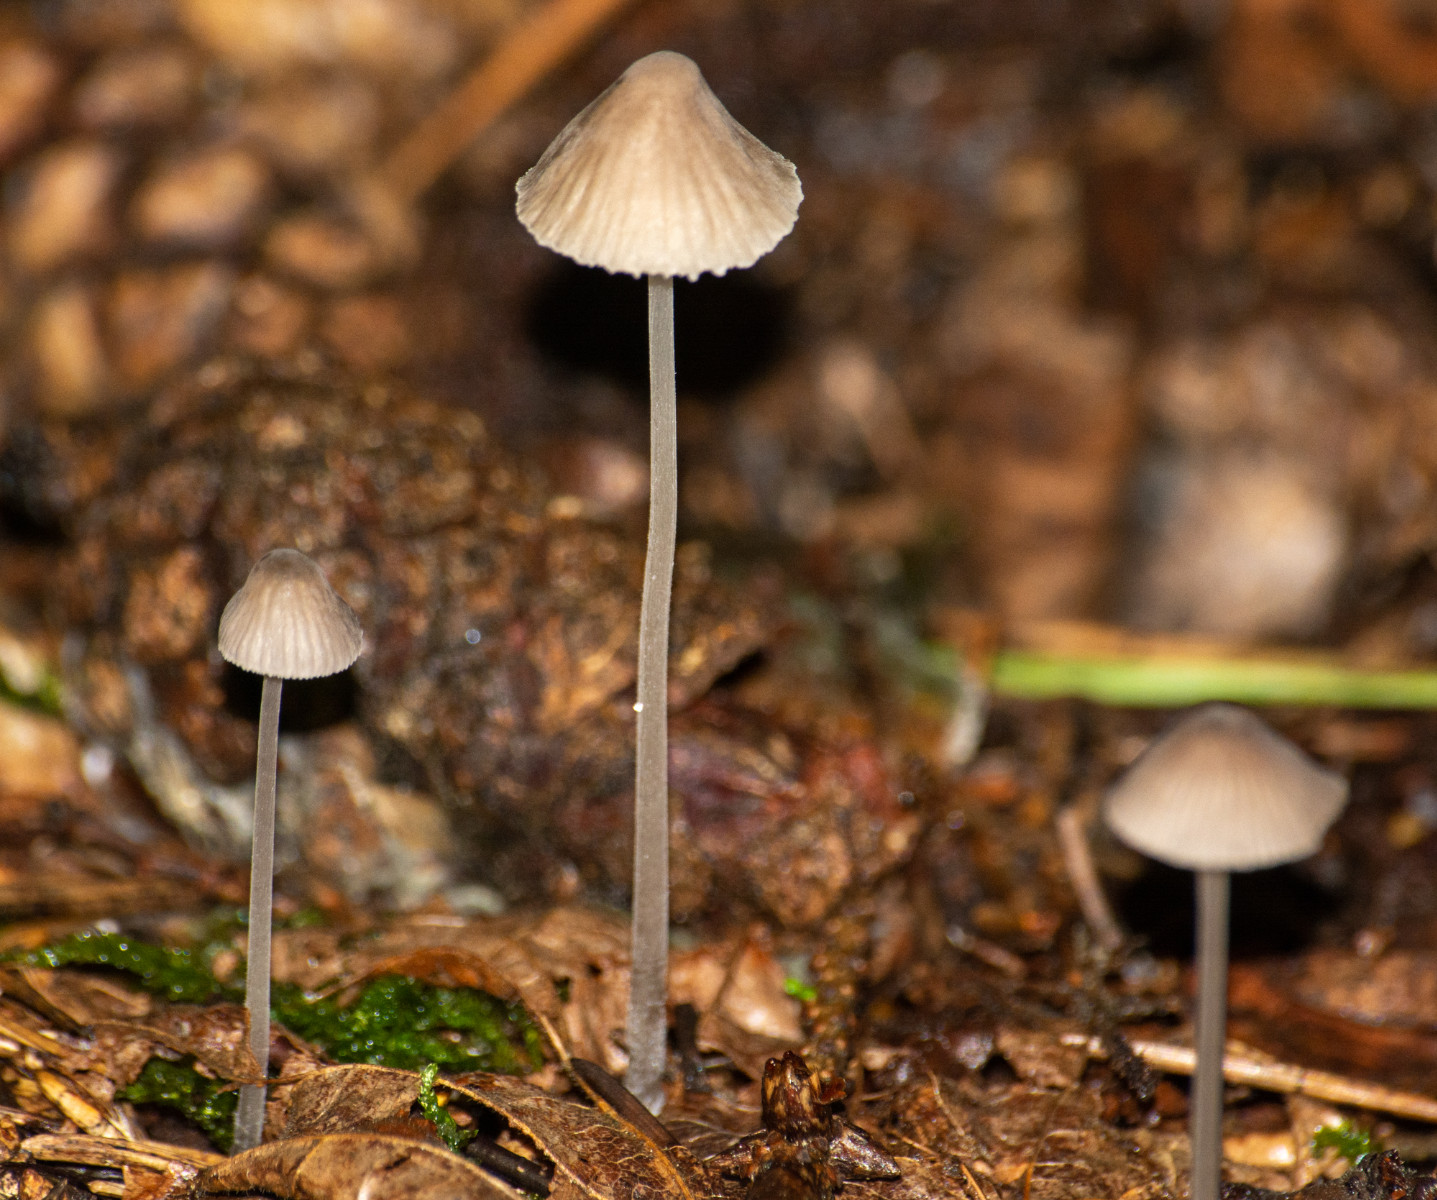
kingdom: Fungi
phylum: Basidiomycota
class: Agaricomycetes
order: Agaricales
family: Mycenaceae
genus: Mycena
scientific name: Mycena
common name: huesvamp
